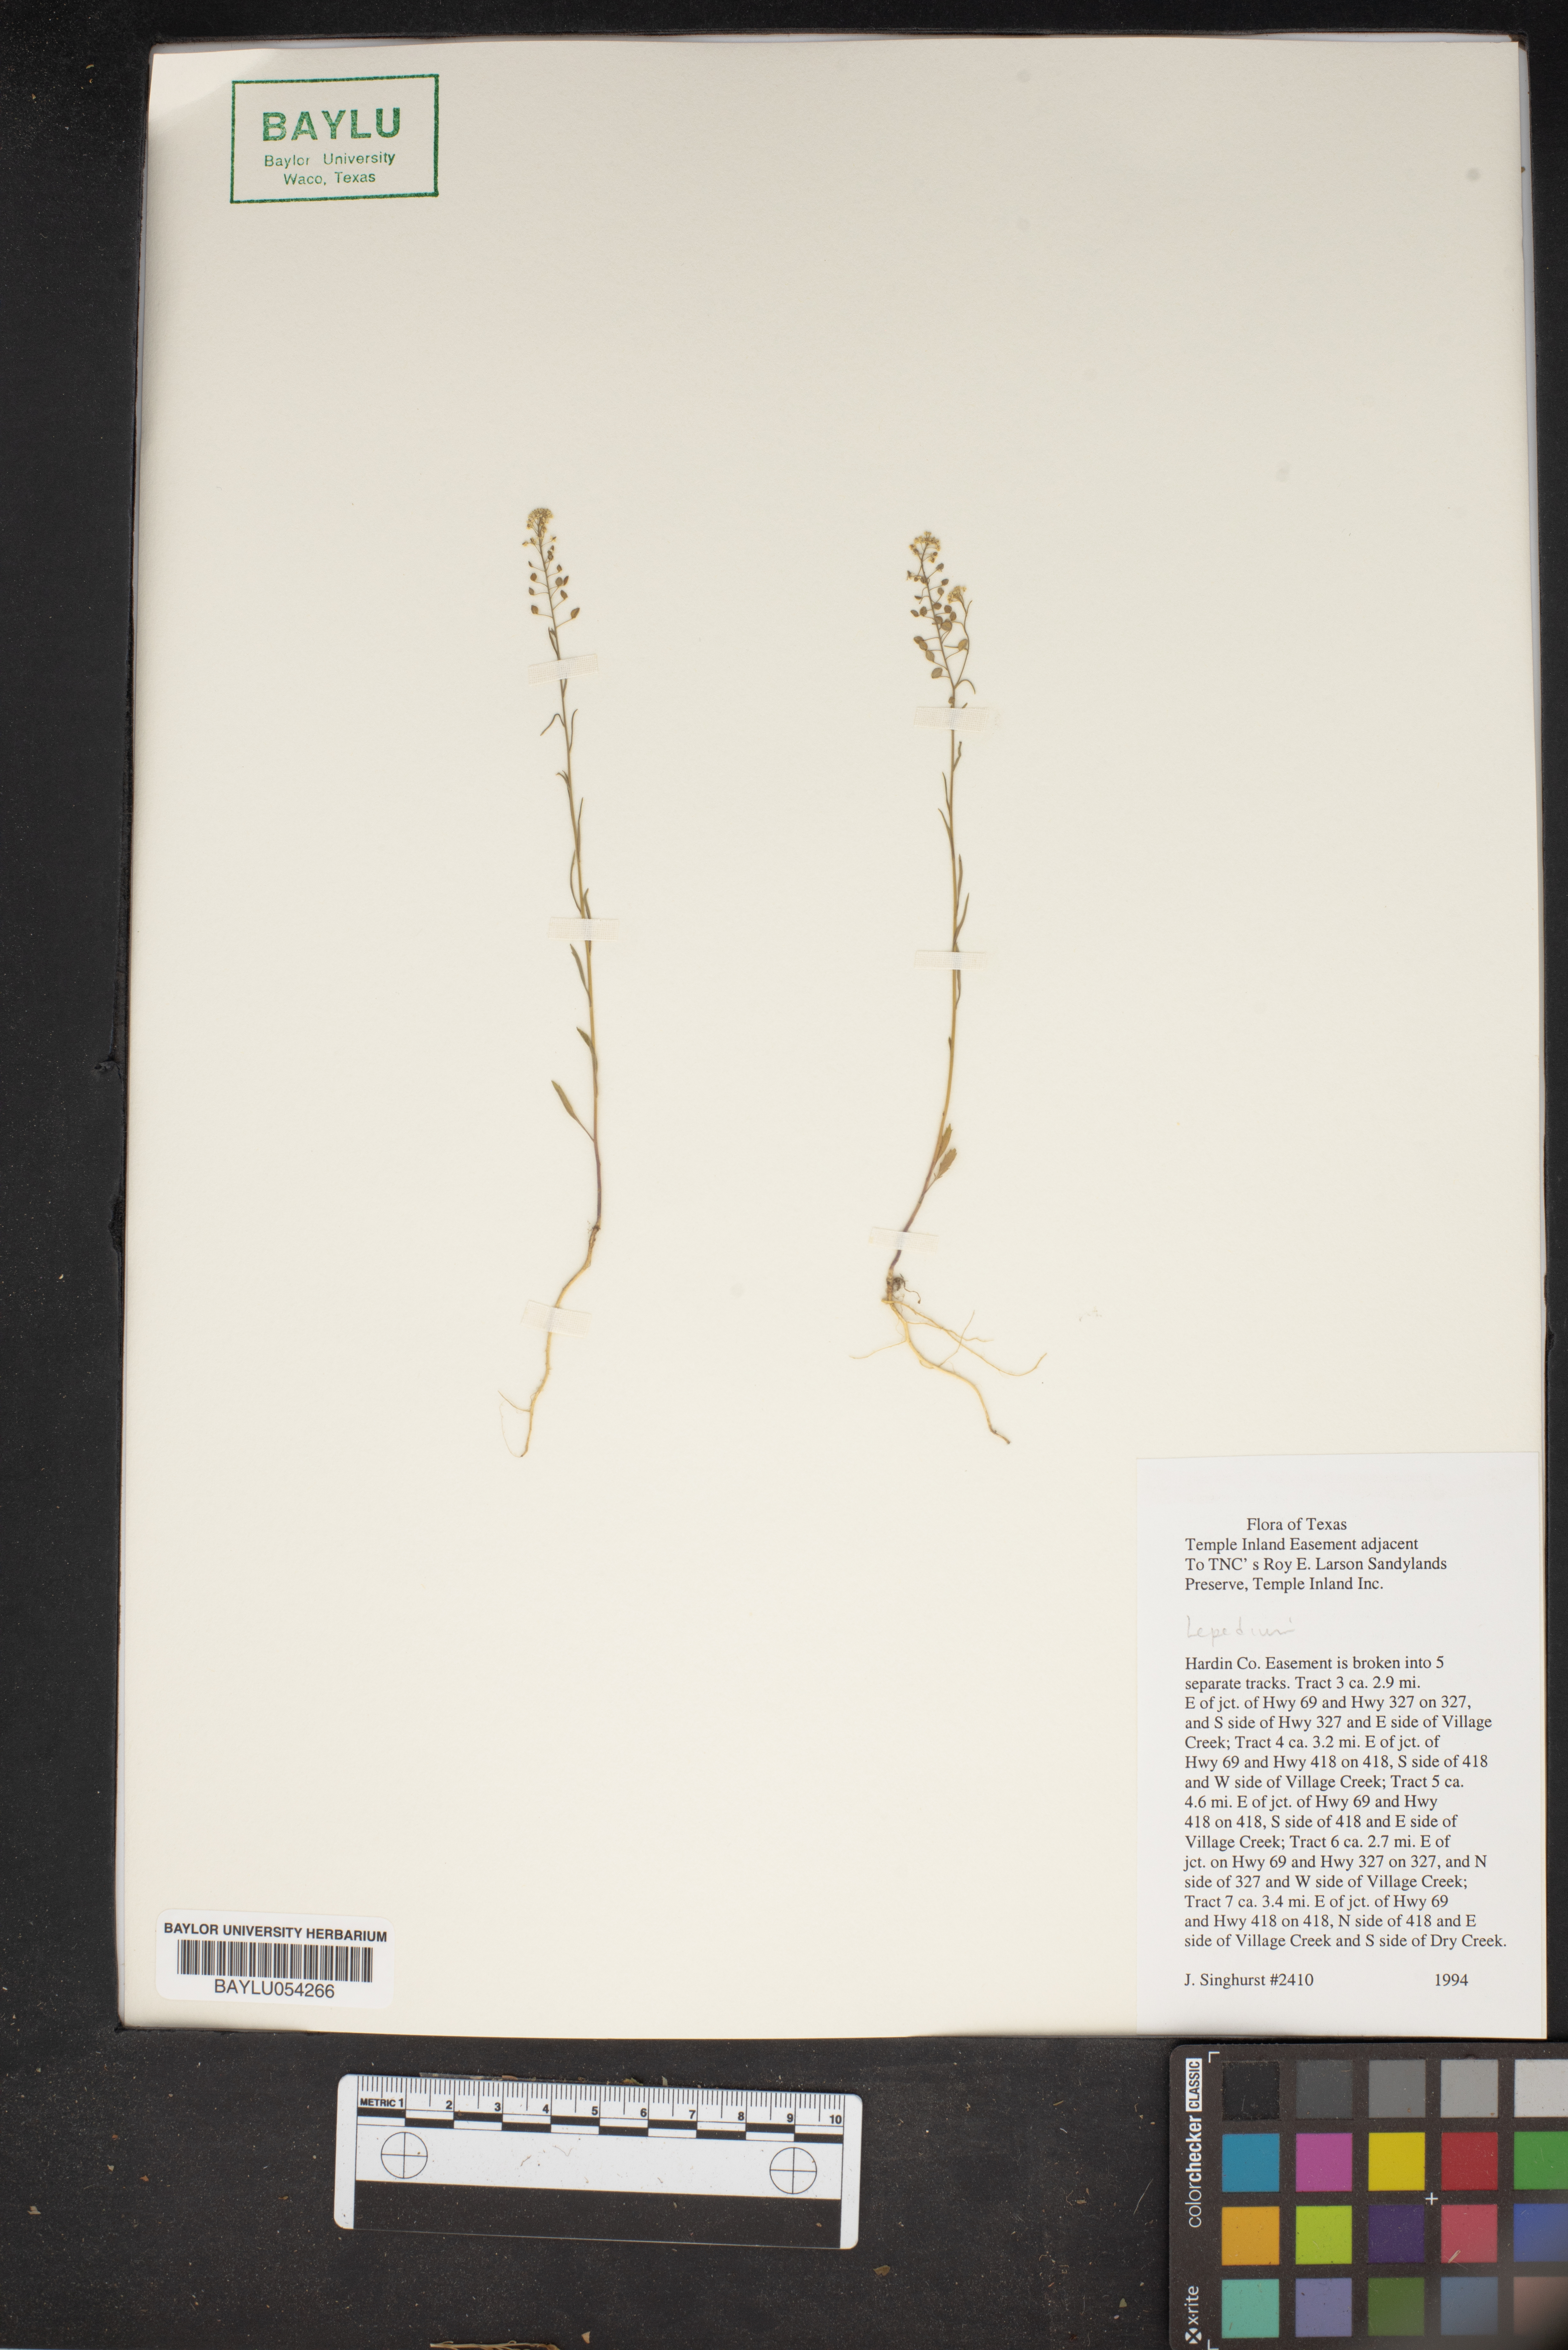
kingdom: Plantae
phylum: Tracheophyta
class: Magnoliopsida
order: Brassicales
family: Brassicaceae
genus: Lepidium
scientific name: Lepidium
